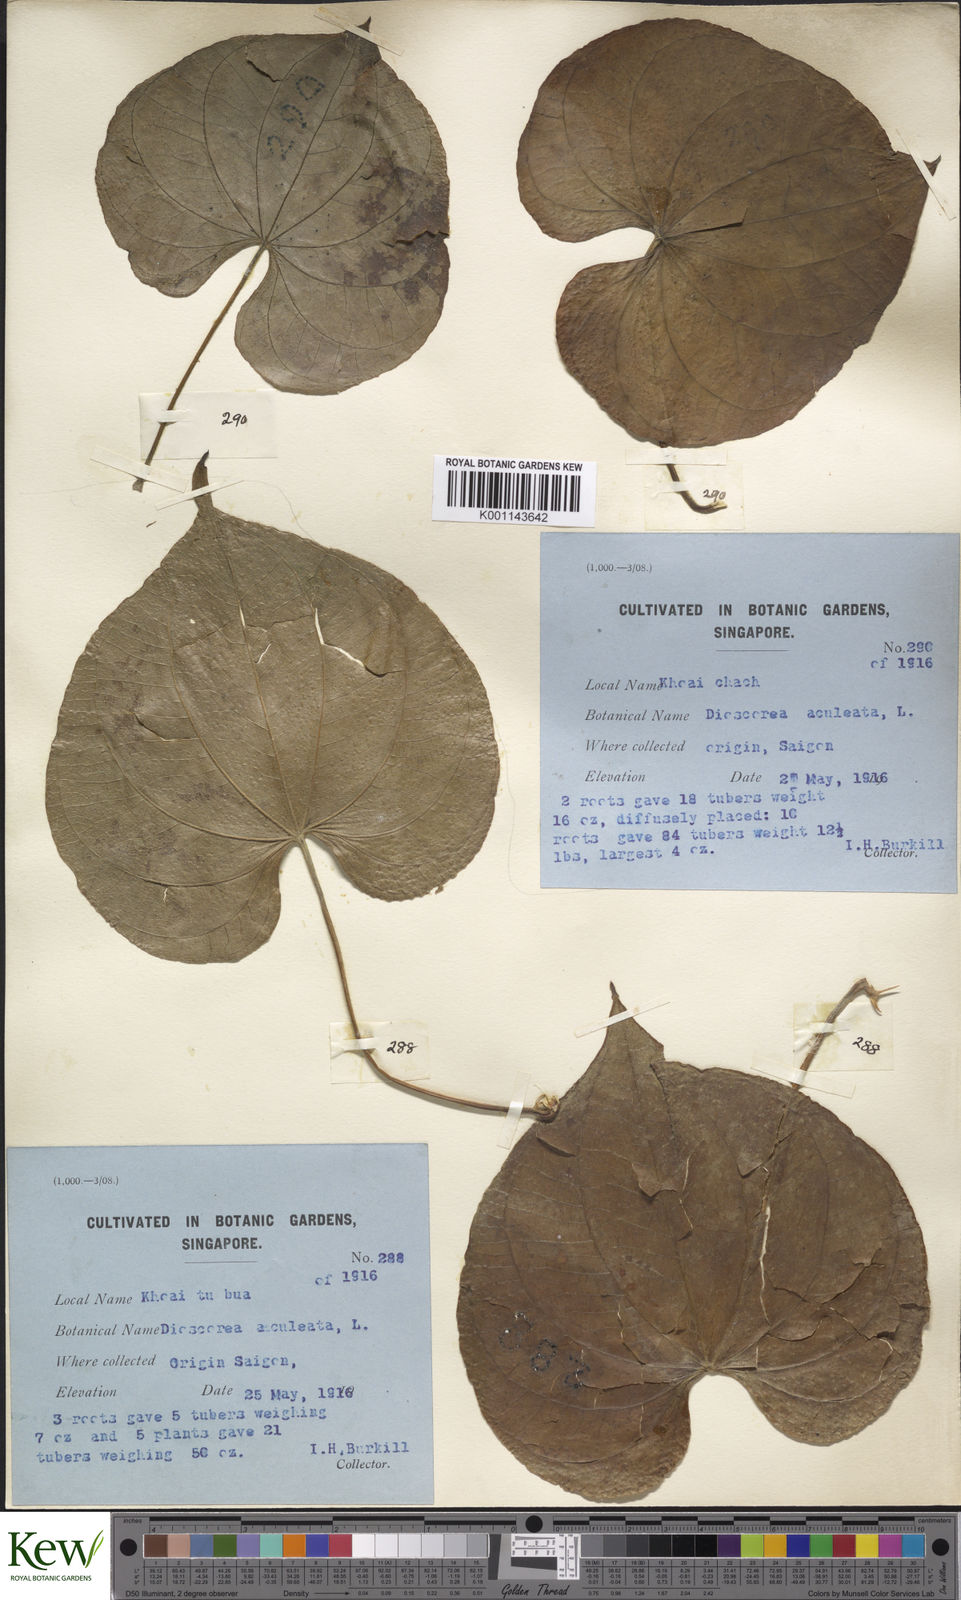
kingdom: Plantae
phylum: Tracheophyta
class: Liliopsida
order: Dioscoreales
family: Dioscoreaceae
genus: Dioscorea
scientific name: Dioscorea esculenta
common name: Chinese yam
